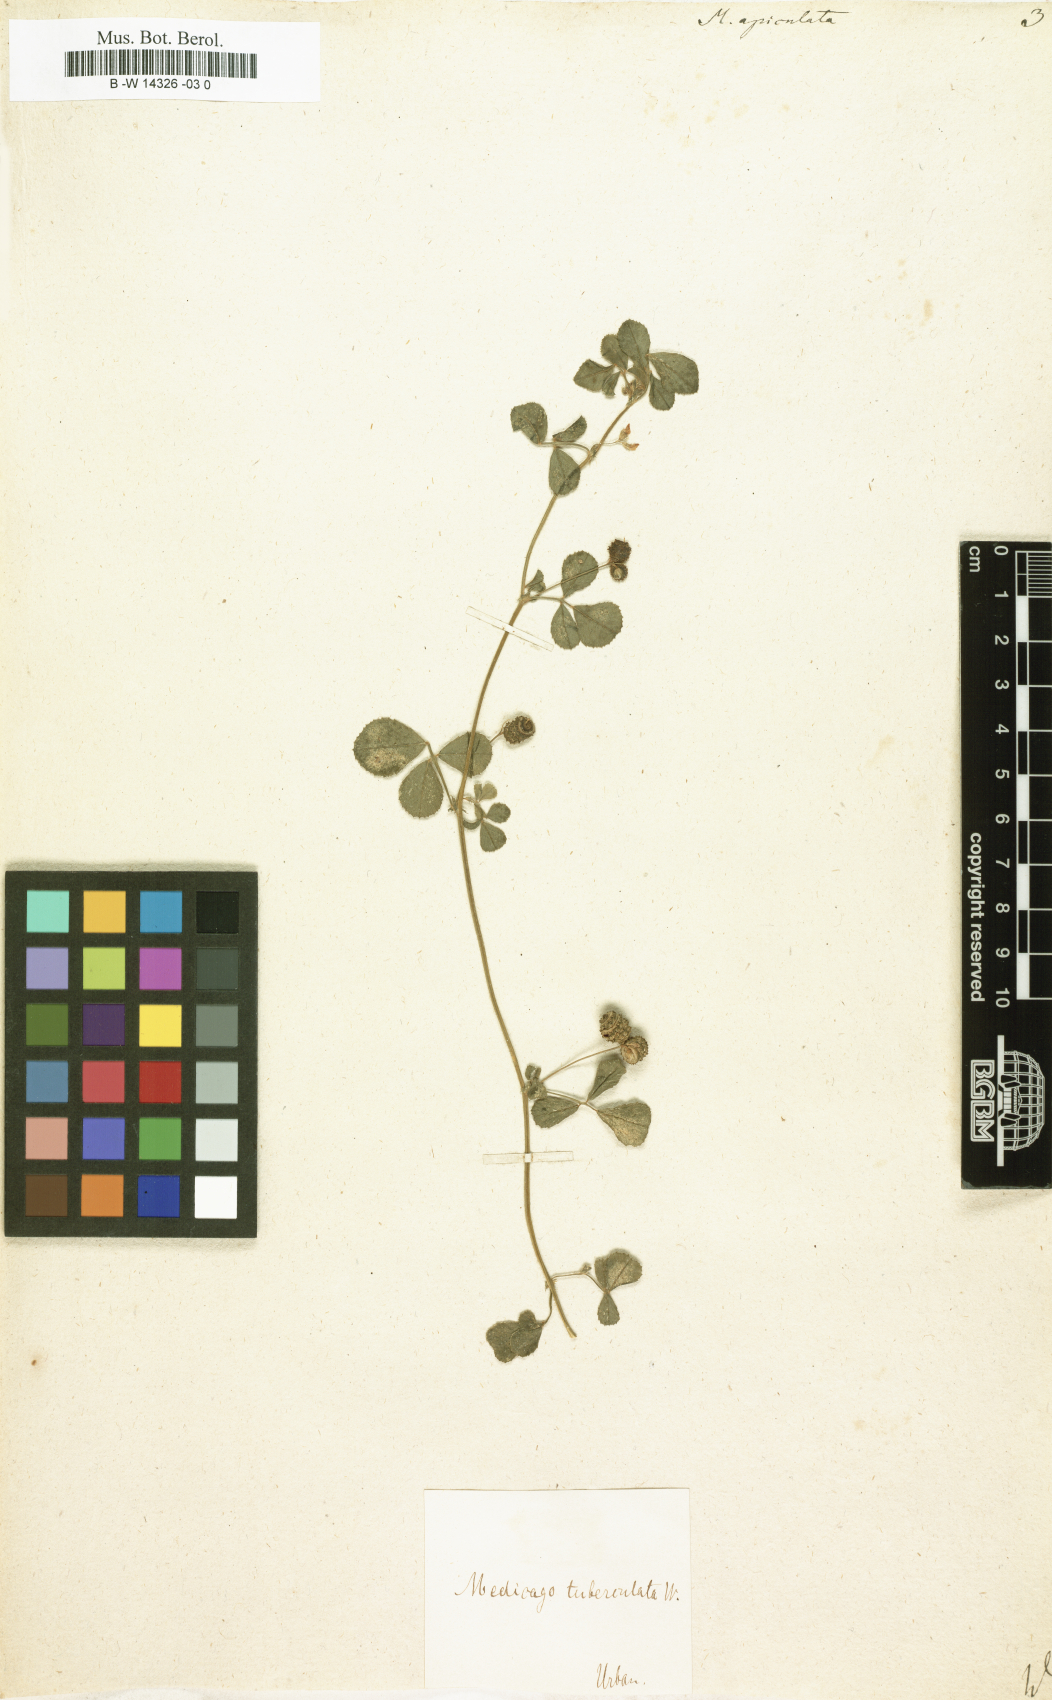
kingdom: Plantae
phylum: Tracheophyta
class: Magnoliopsida
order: Fabales
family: Fabaceae
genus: Medicago
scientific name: Medicago polymorpha
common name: Burclover
